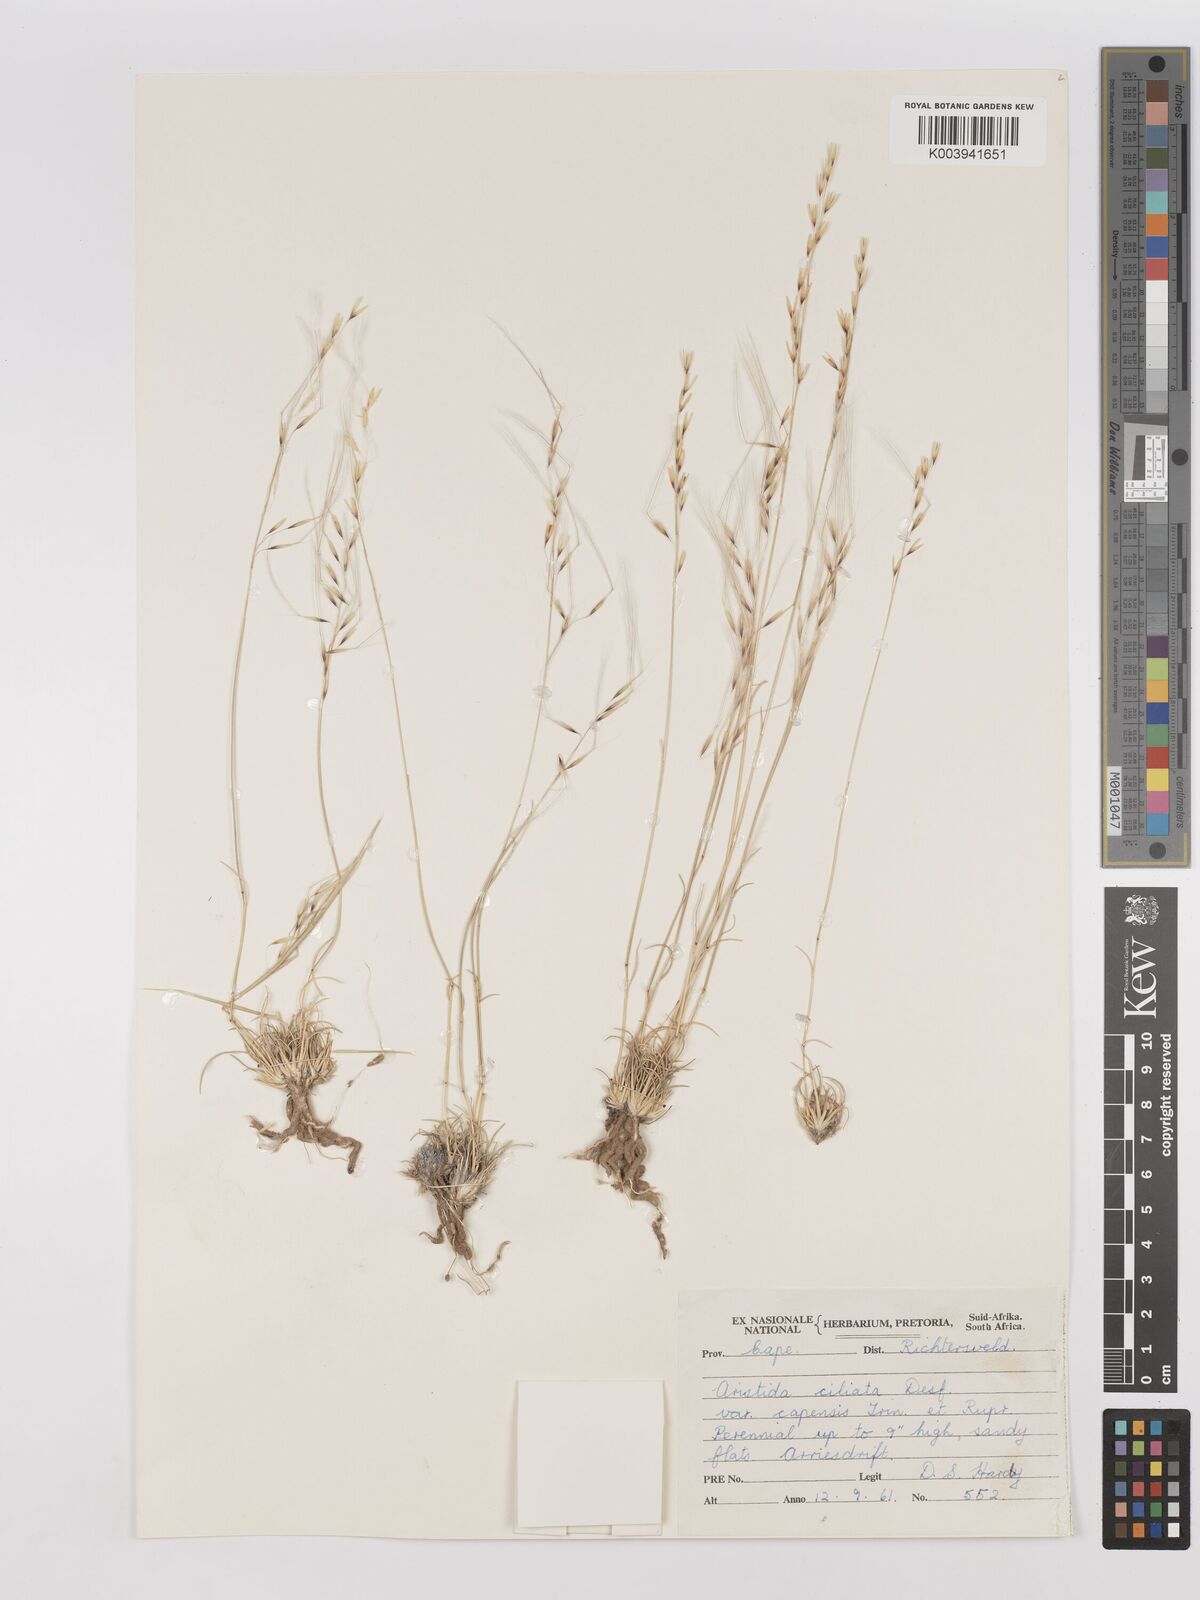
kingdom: Plantae
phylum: Tracheophyta
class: Liliopsida
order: Poales
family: Poaceae
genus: Stipagrostis
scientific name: Stipagrostis ciliata
